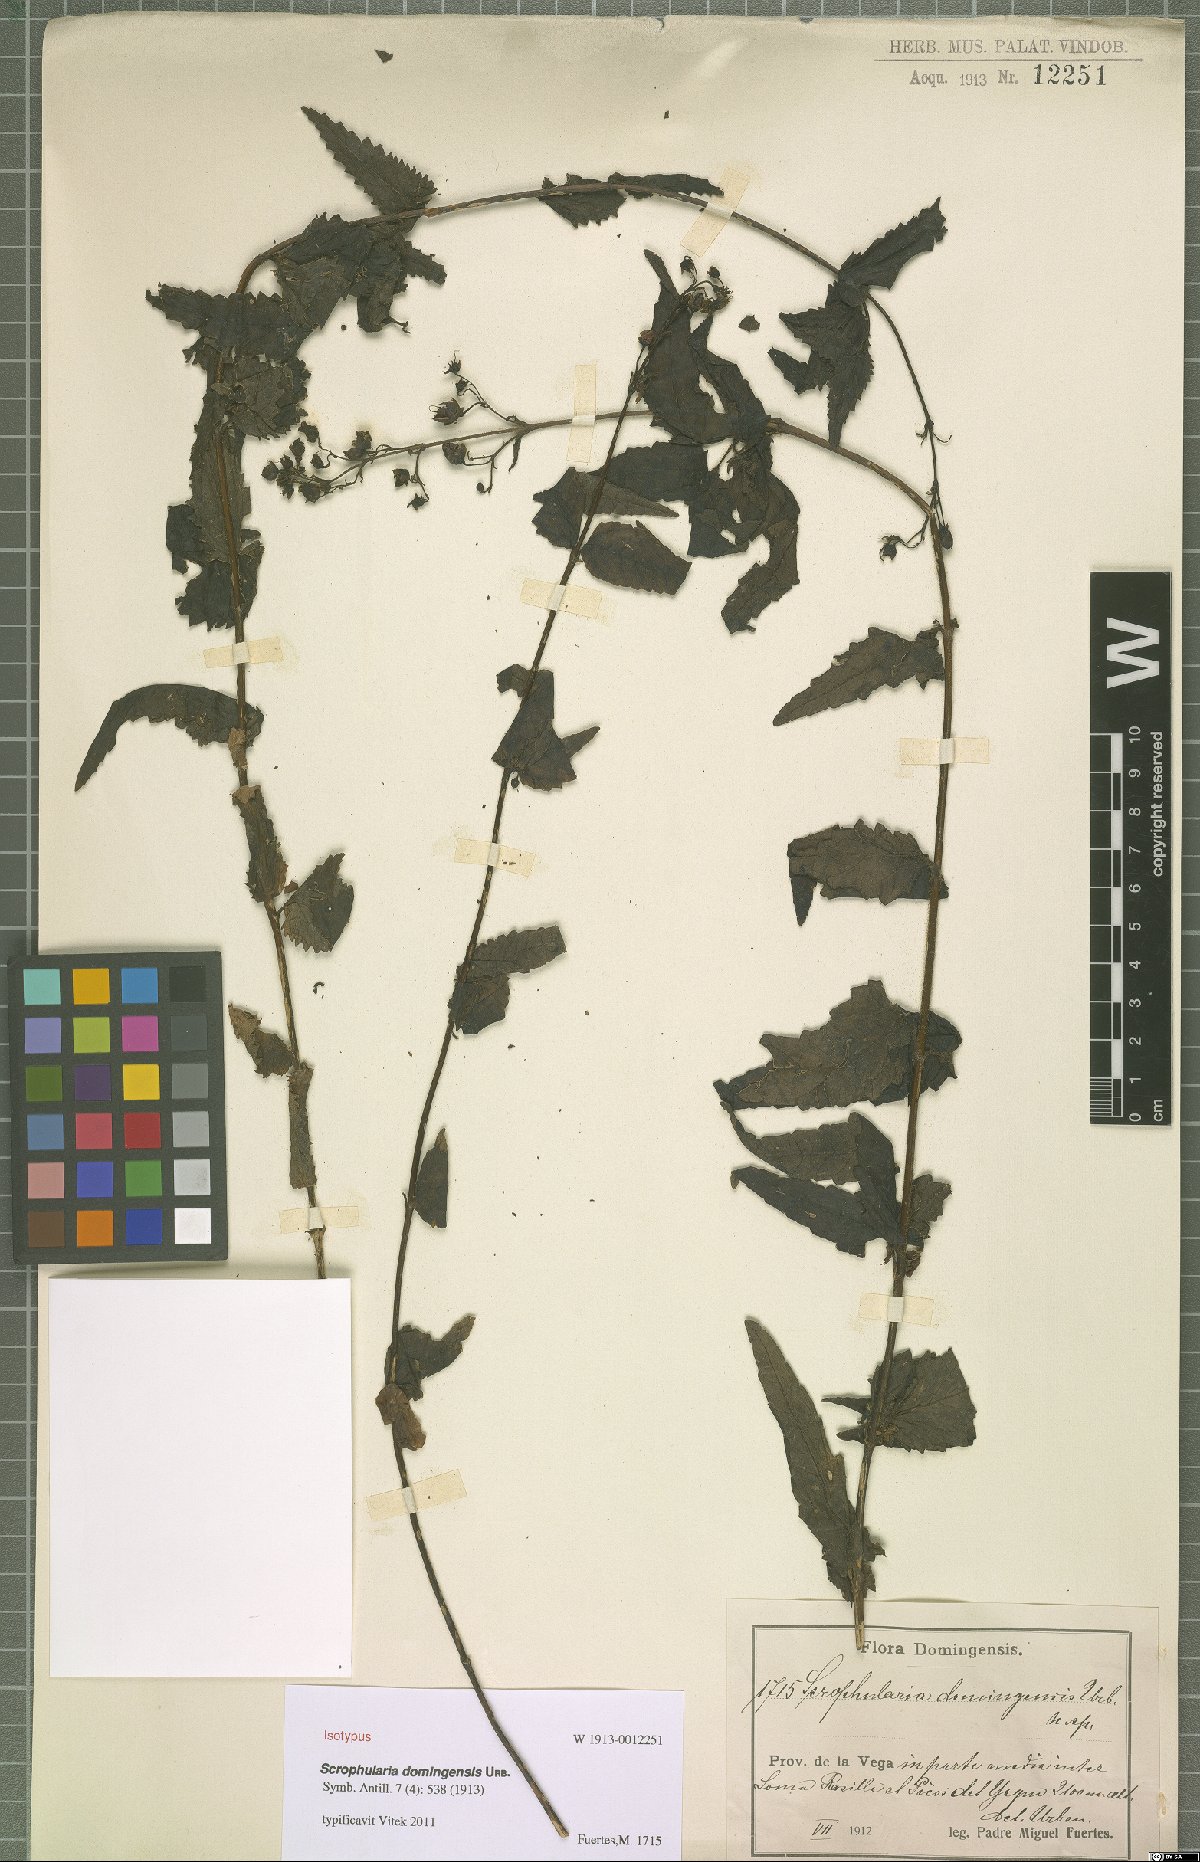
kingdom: Plantae
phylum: Tracheophyta
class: Magnoliopsida
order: Lamiales
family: Scrophulariaceae
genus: Scrophularia
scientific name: Scrophularia domingensis
